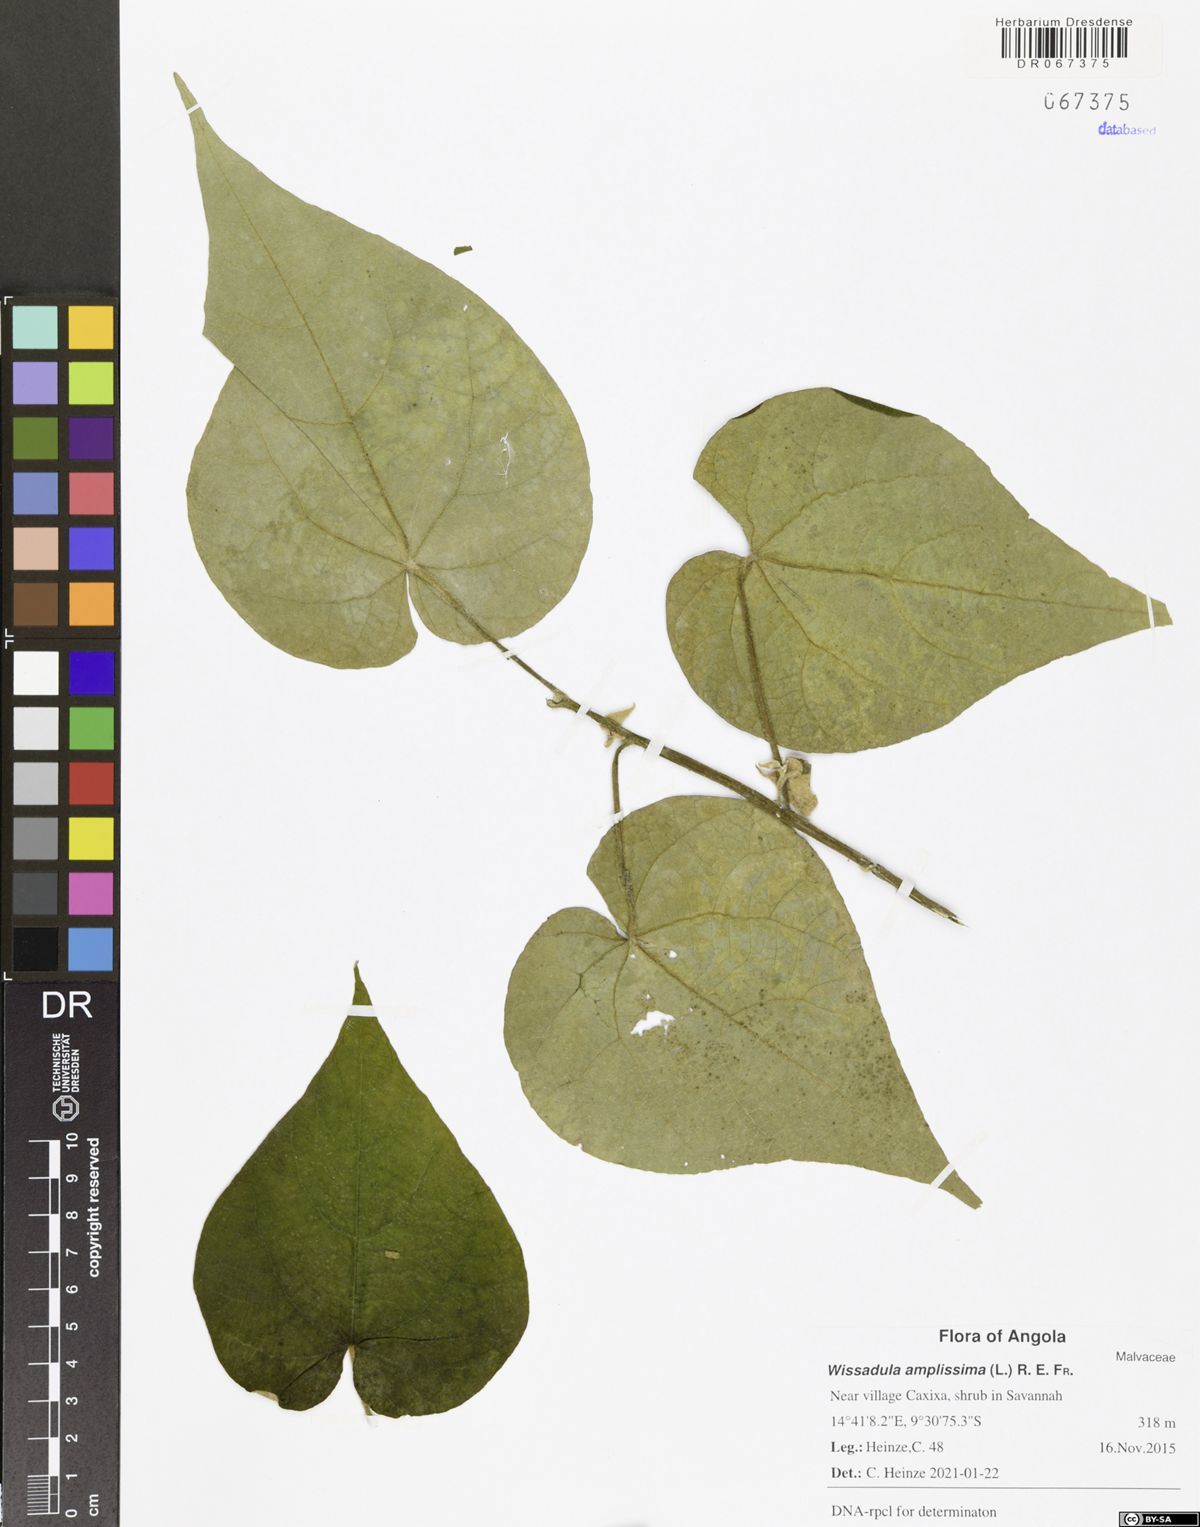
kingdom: Plantae
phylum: Tracheophyta
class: Magnoliopsida
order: Malvales
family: Malvaceae
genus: Wissadula
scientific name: Wissadula amplissima
